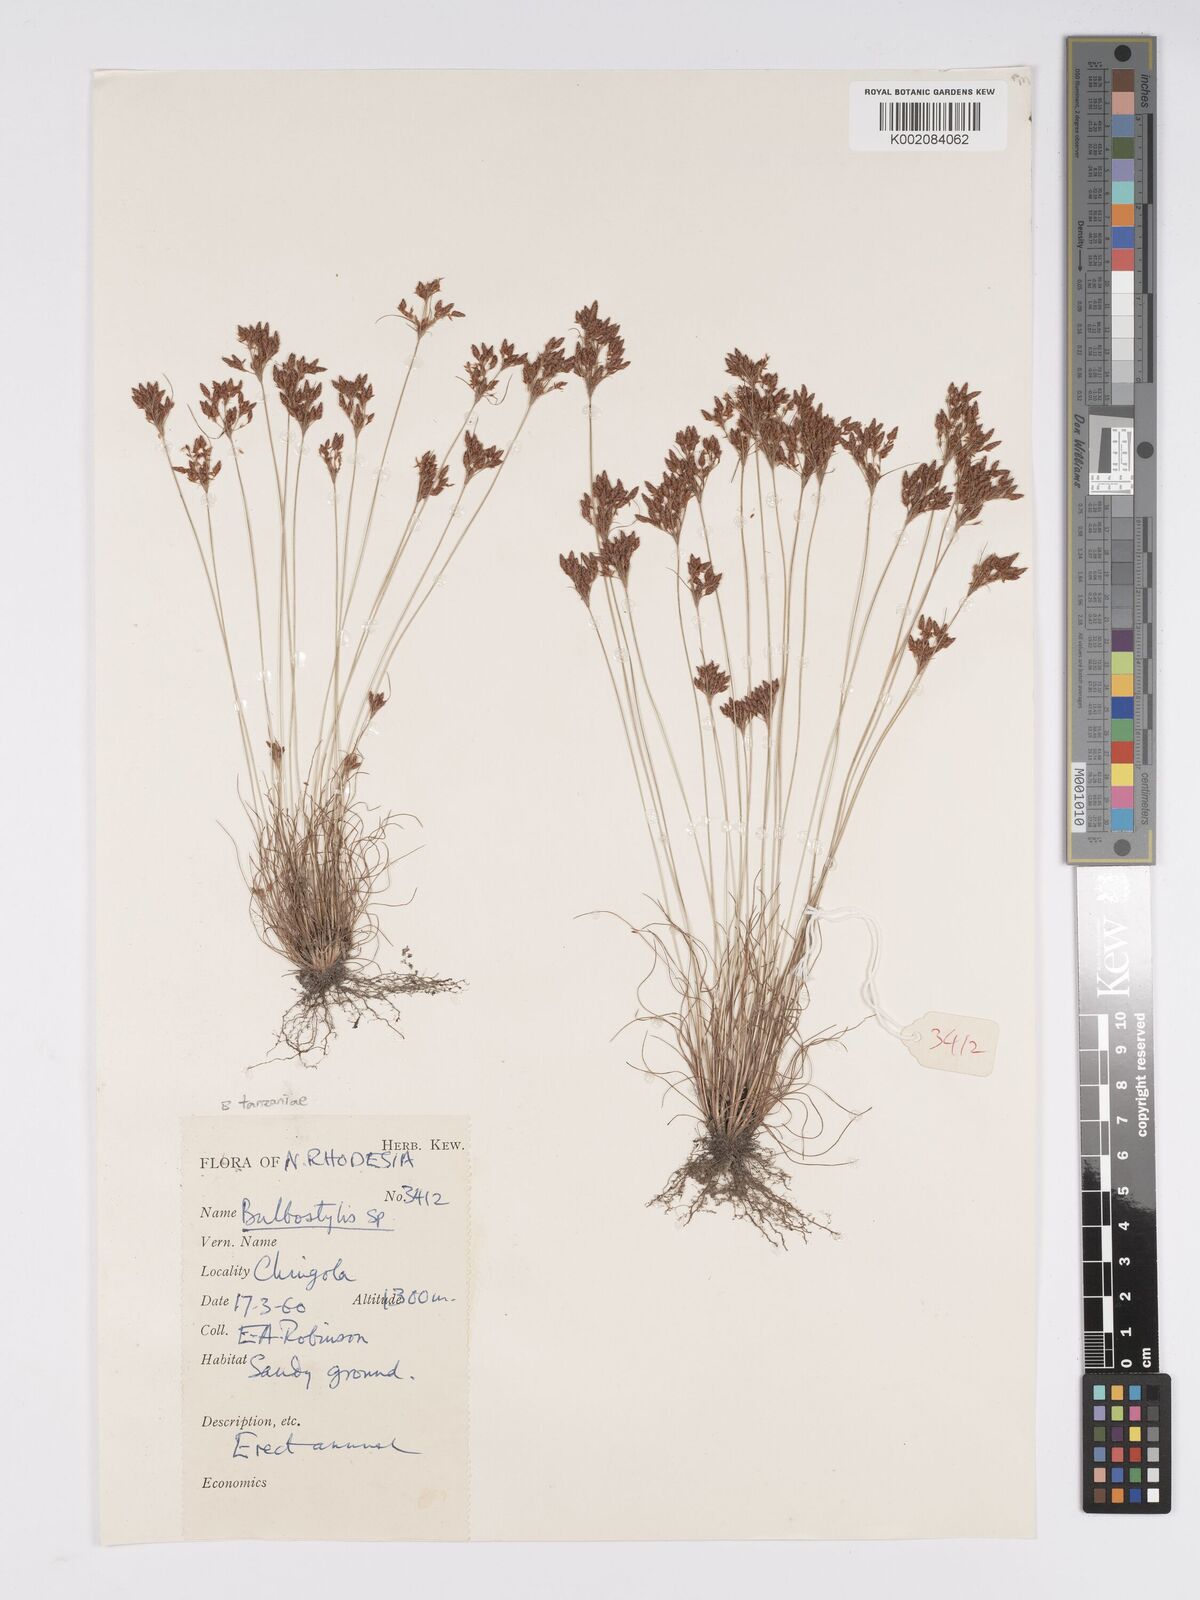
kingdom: Plantae
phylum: Tracheophyta
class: Liliopsida
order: Poales
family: Cyperaceae
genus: Bulbostylis
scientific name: Bulbostylis tanzaniae
